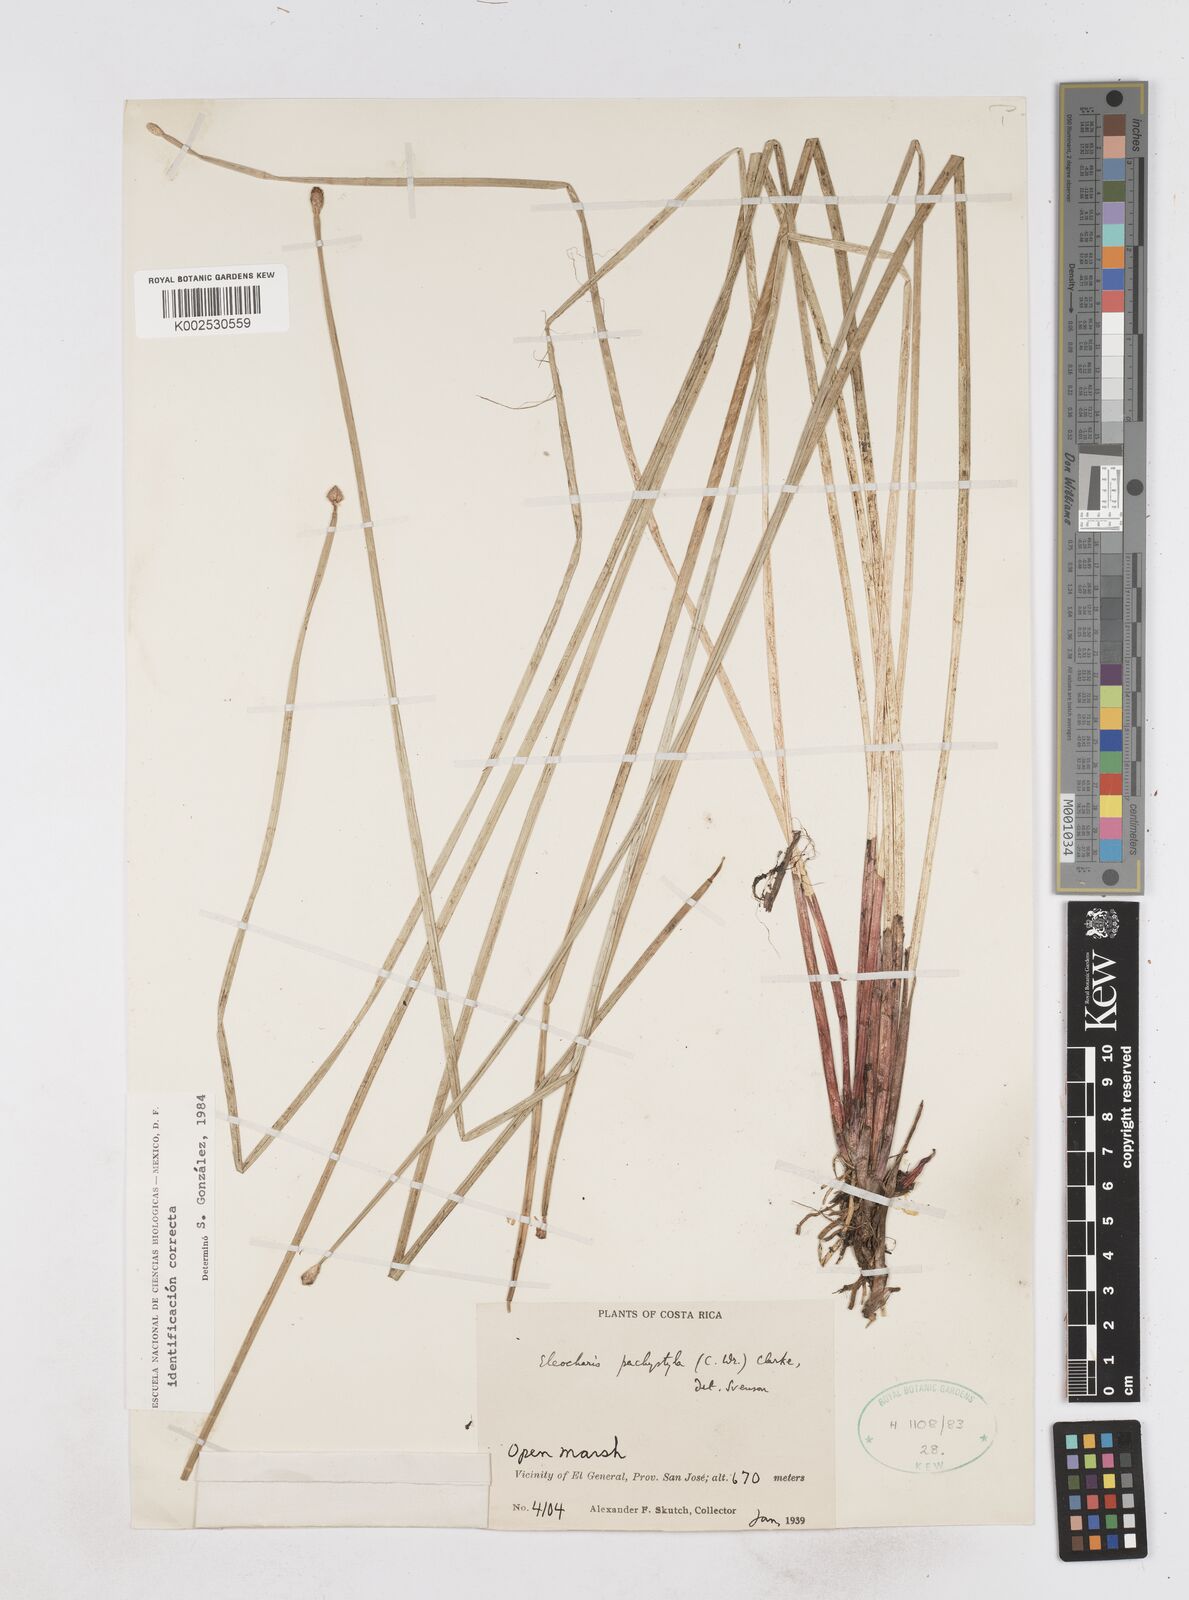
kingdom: Plantae
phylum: Tracheophyta
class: Liliopsida
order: Poales
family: Cyperaceae
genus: Eleocharis
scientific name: Eleocharis pachystyla
